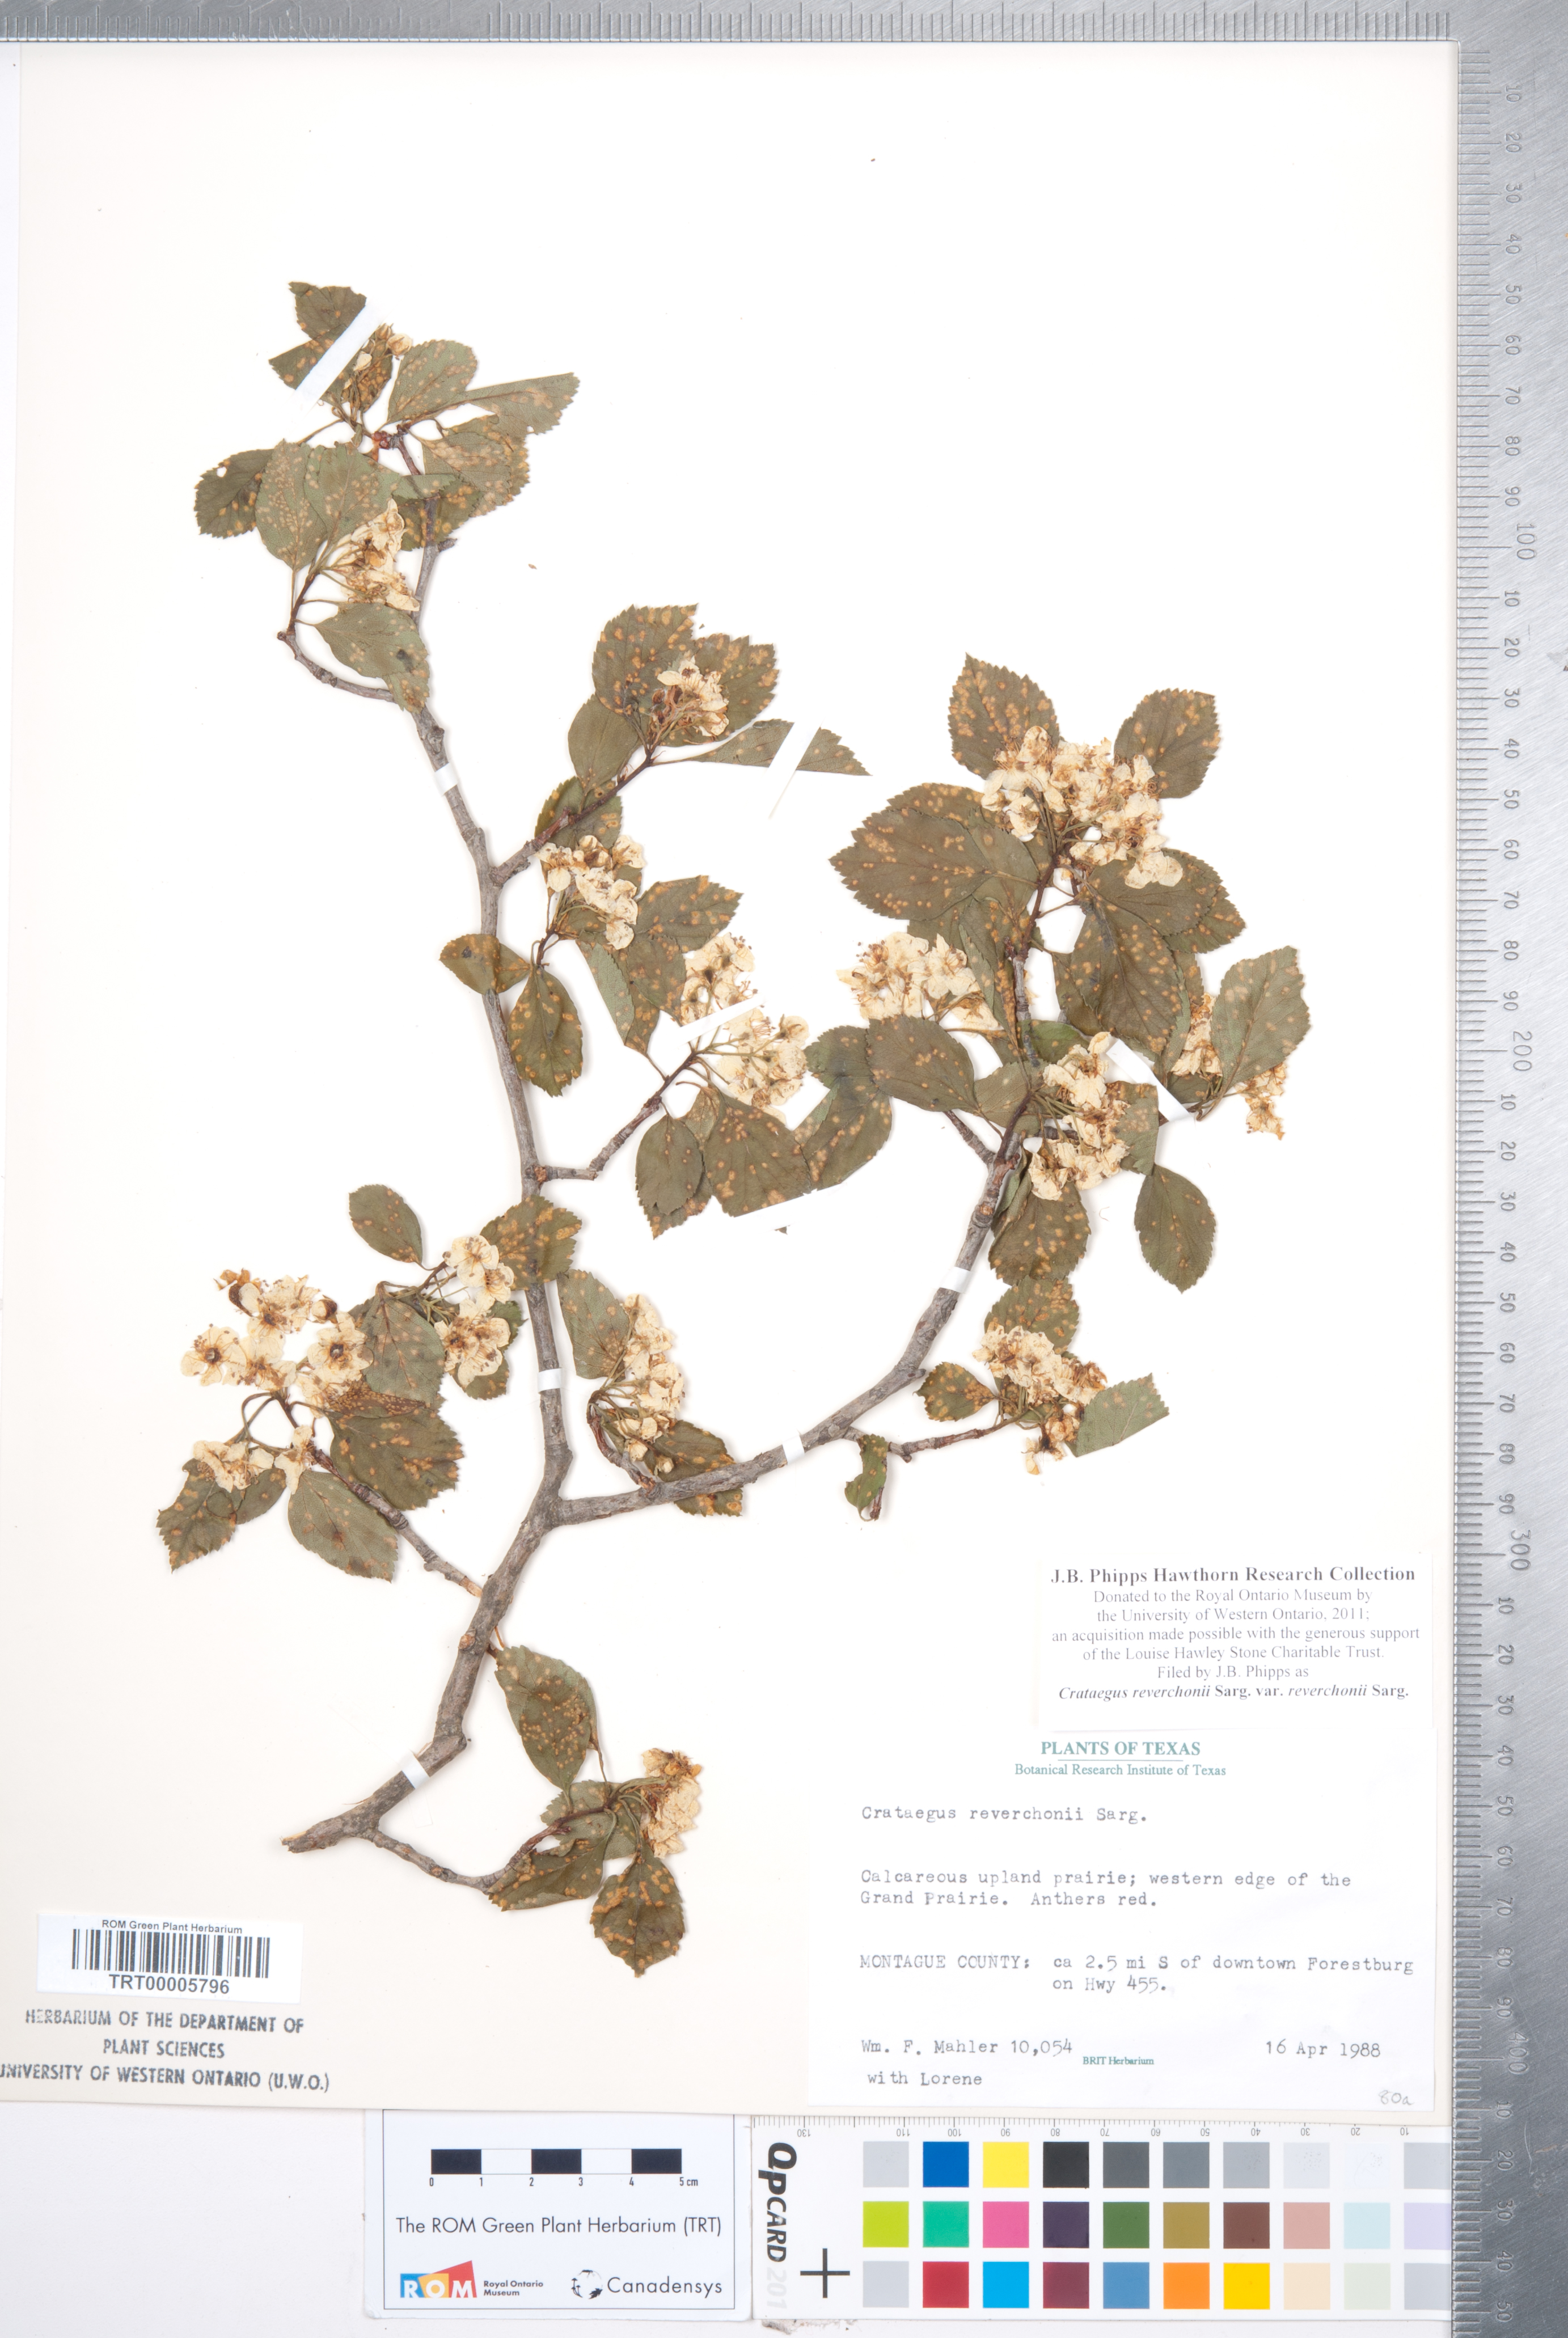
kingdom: Plantae
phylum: Tracheophyta
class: Magnoliopsida
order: Rosales
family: Rosaceae
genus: Crataegus
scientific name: Crataegus reverchonii
